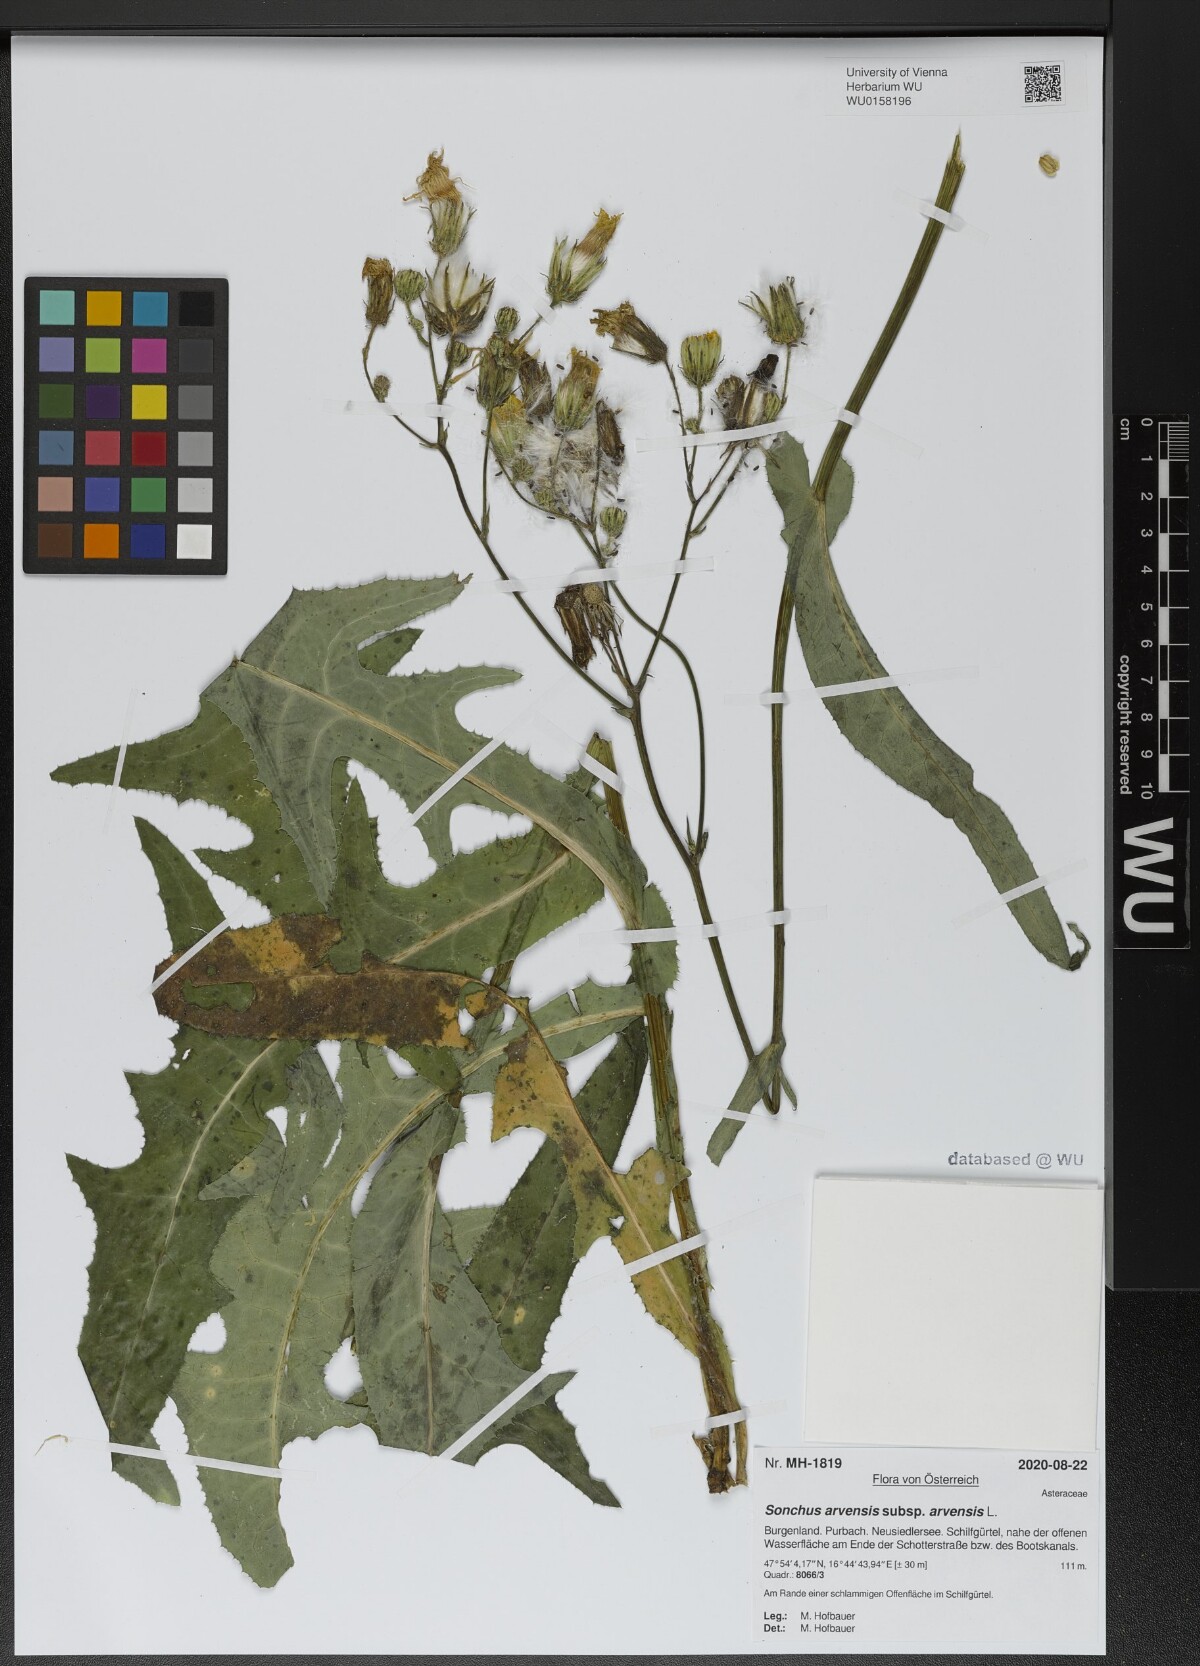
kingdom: Plantae
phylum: Tracheophyta
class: Magnoliopsida
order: Asterales
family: Asteraceae
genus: Sonchus
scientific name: Sonchus arvensis
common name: Perennial sow-thistle
